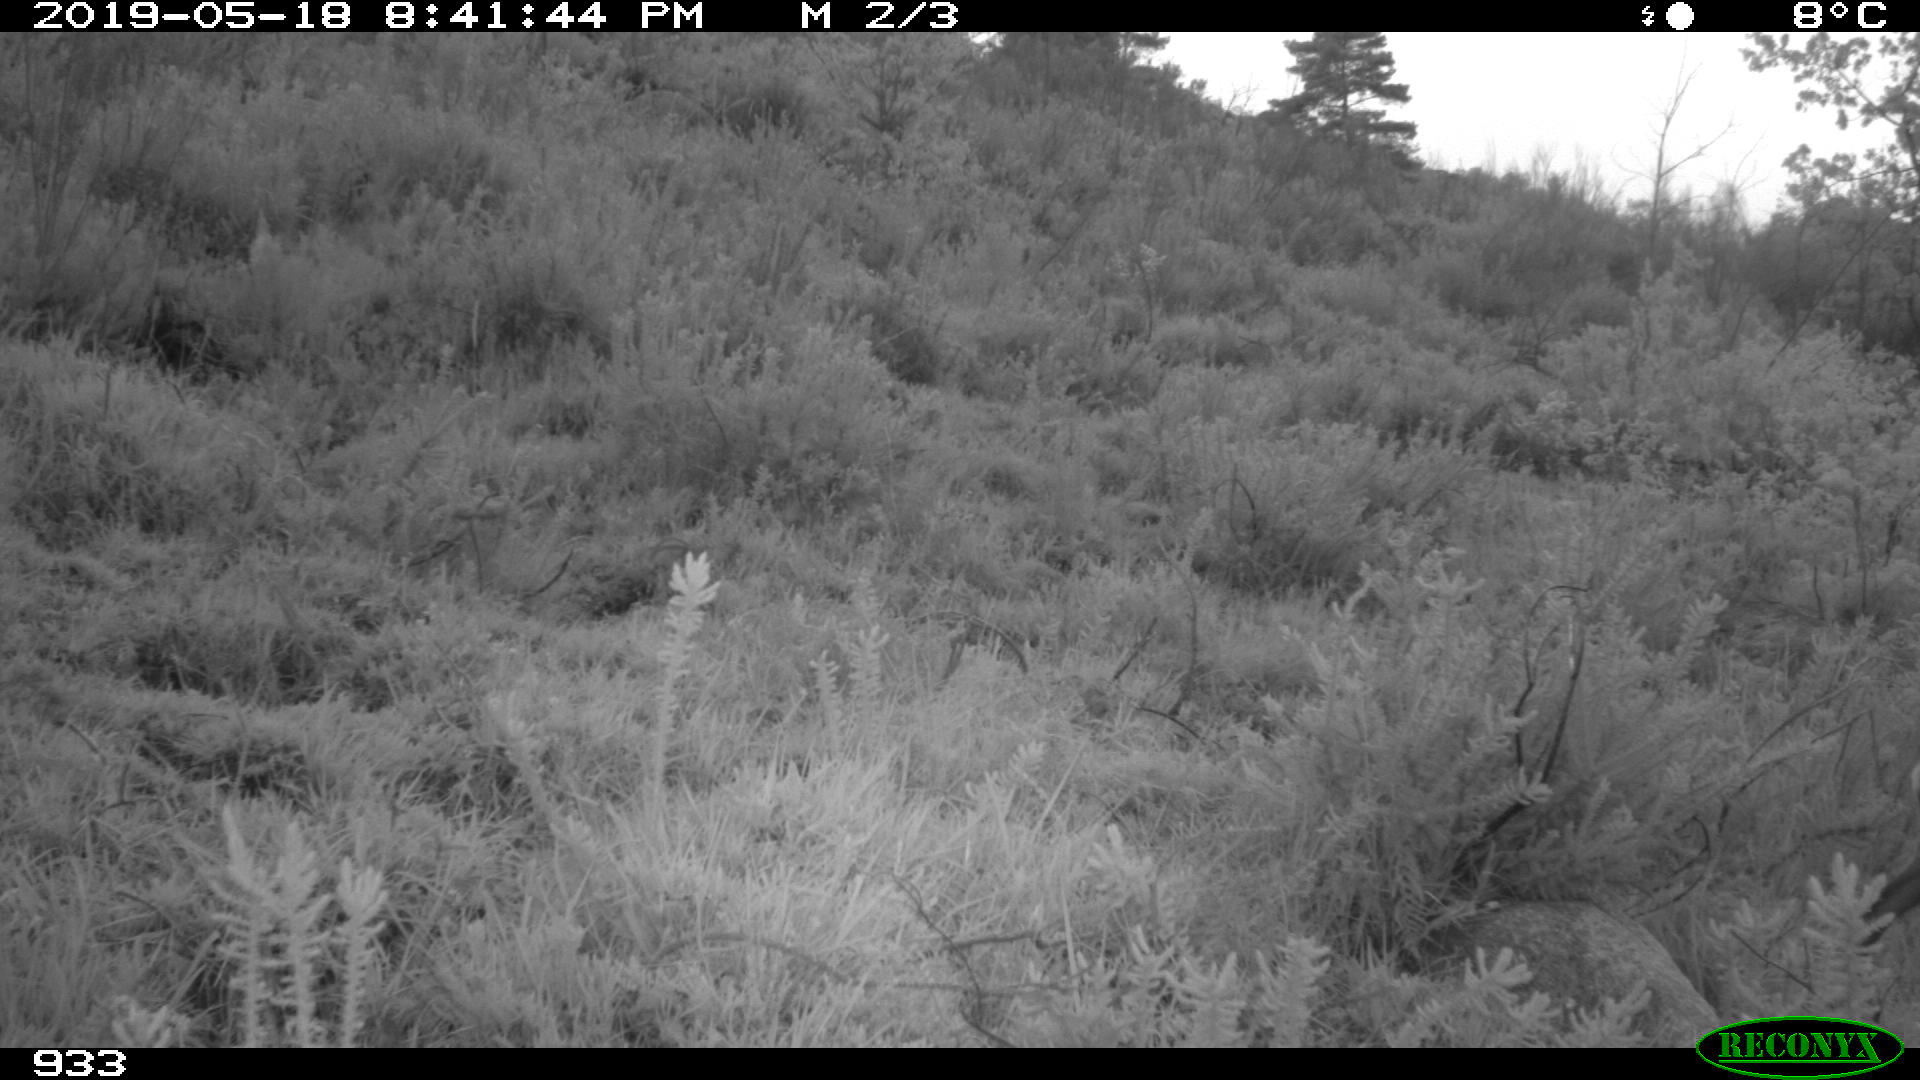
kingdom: Animalia
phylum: Chordata
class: Mammalia
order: Artiodactyla
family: Cervidae
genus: Capreolus
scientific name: Capreolus capreolus
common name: Western roe deer
